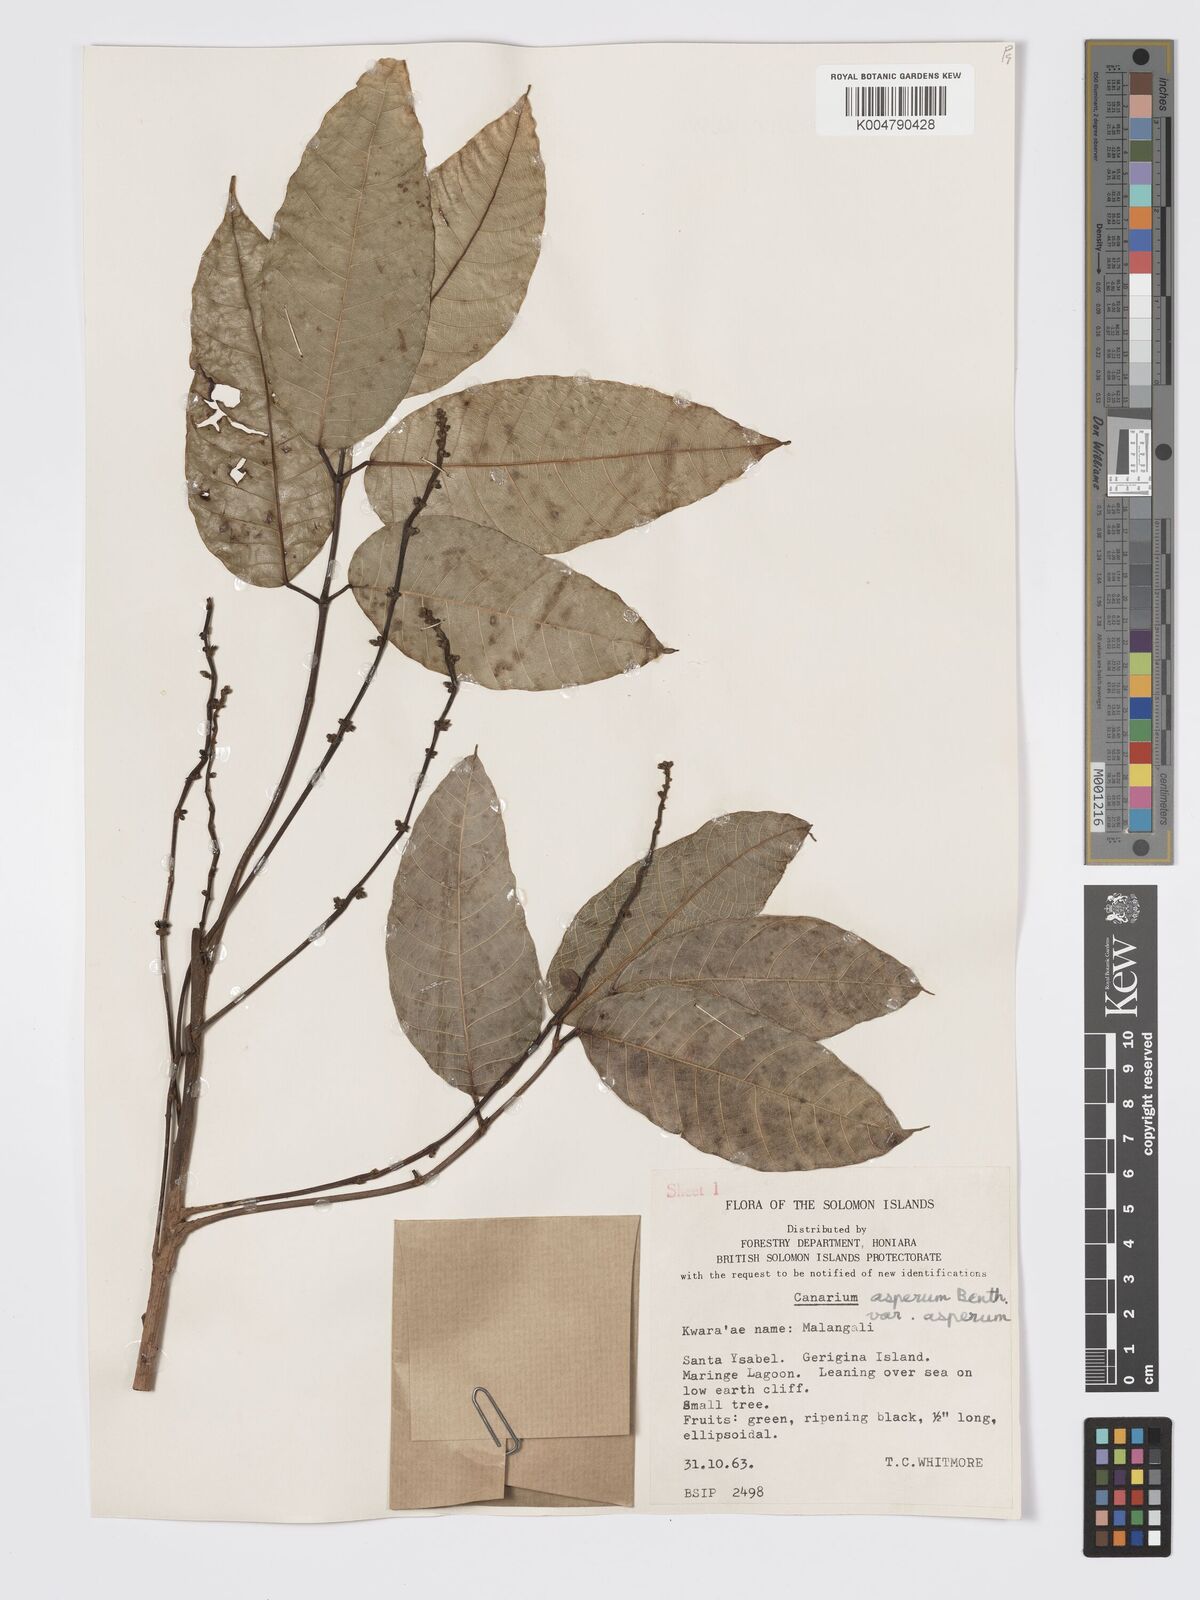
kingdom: Plantae
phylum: Tracheophyta
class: Magnoliopsida
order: Sapindales
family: Burseraceae
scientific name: Burseraceae
